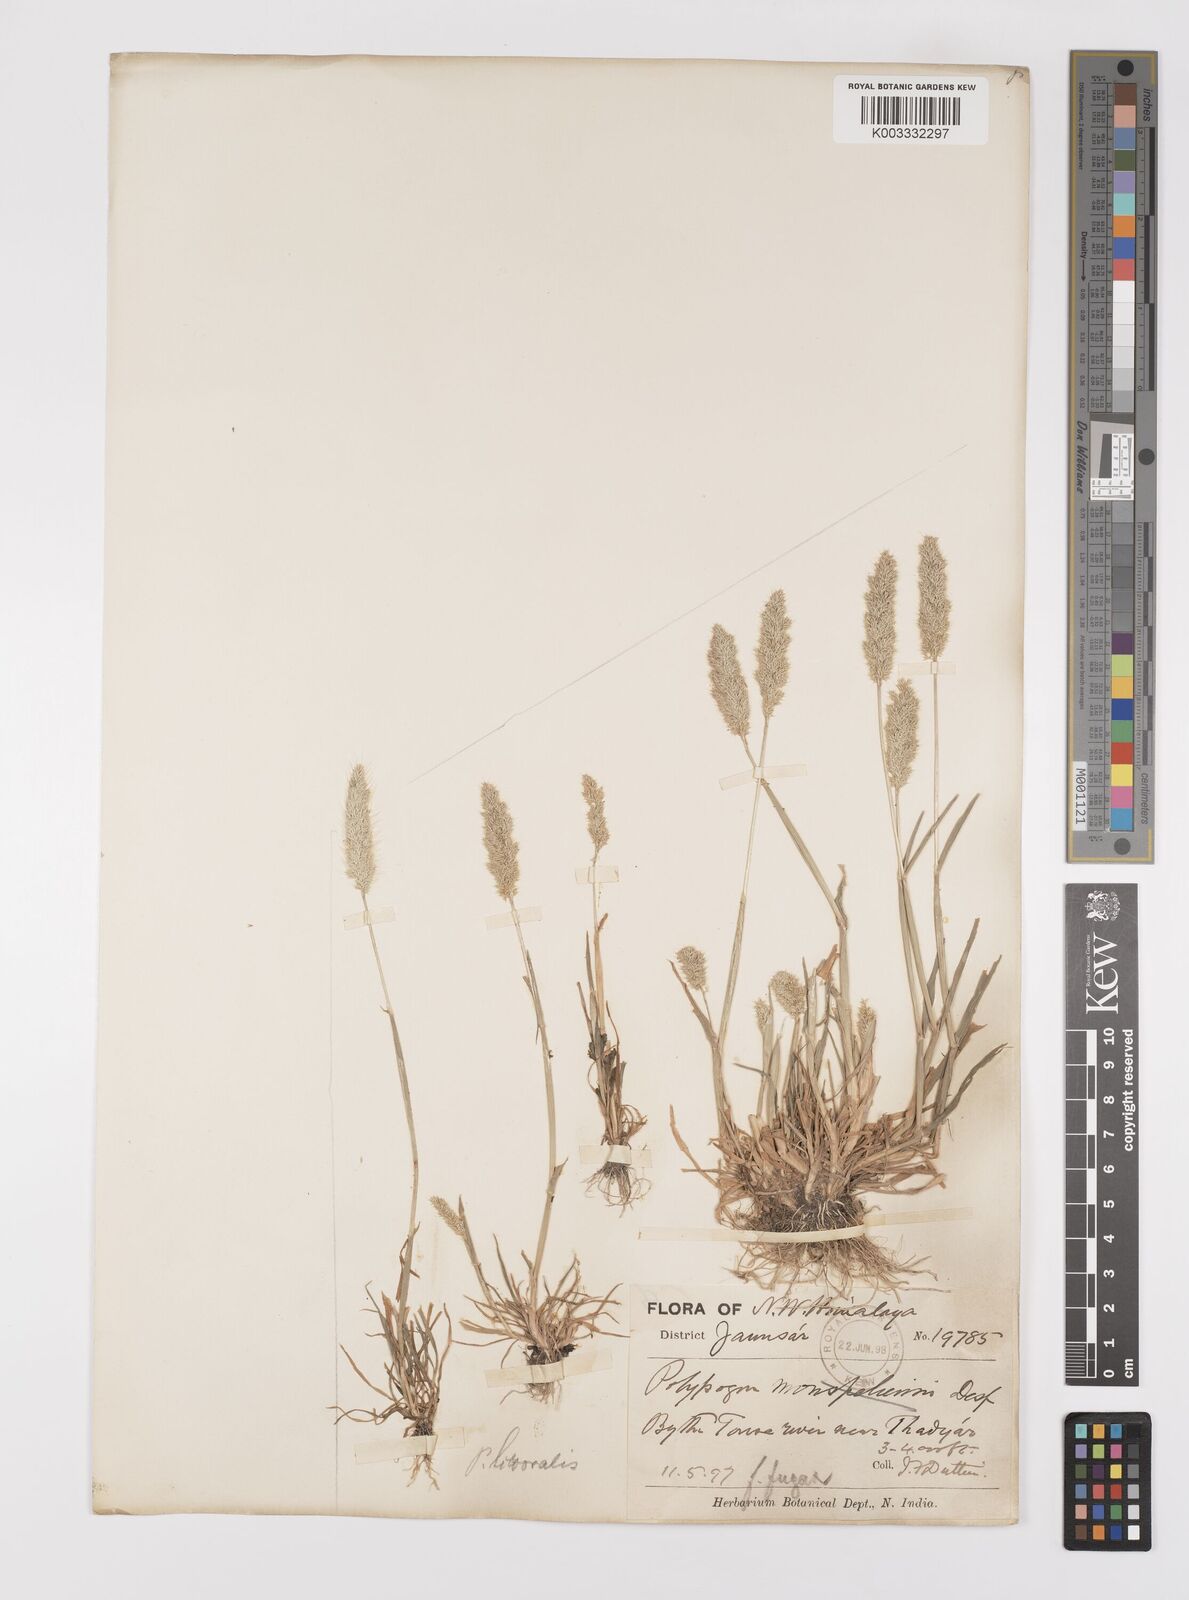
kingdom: Plantae
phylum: Tracheophyta
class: Liliopsida
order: Poales
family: Poaceae
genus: Polypogon
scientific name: Polypogon monspeliensis
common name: Annual rabbitsfoot grass
